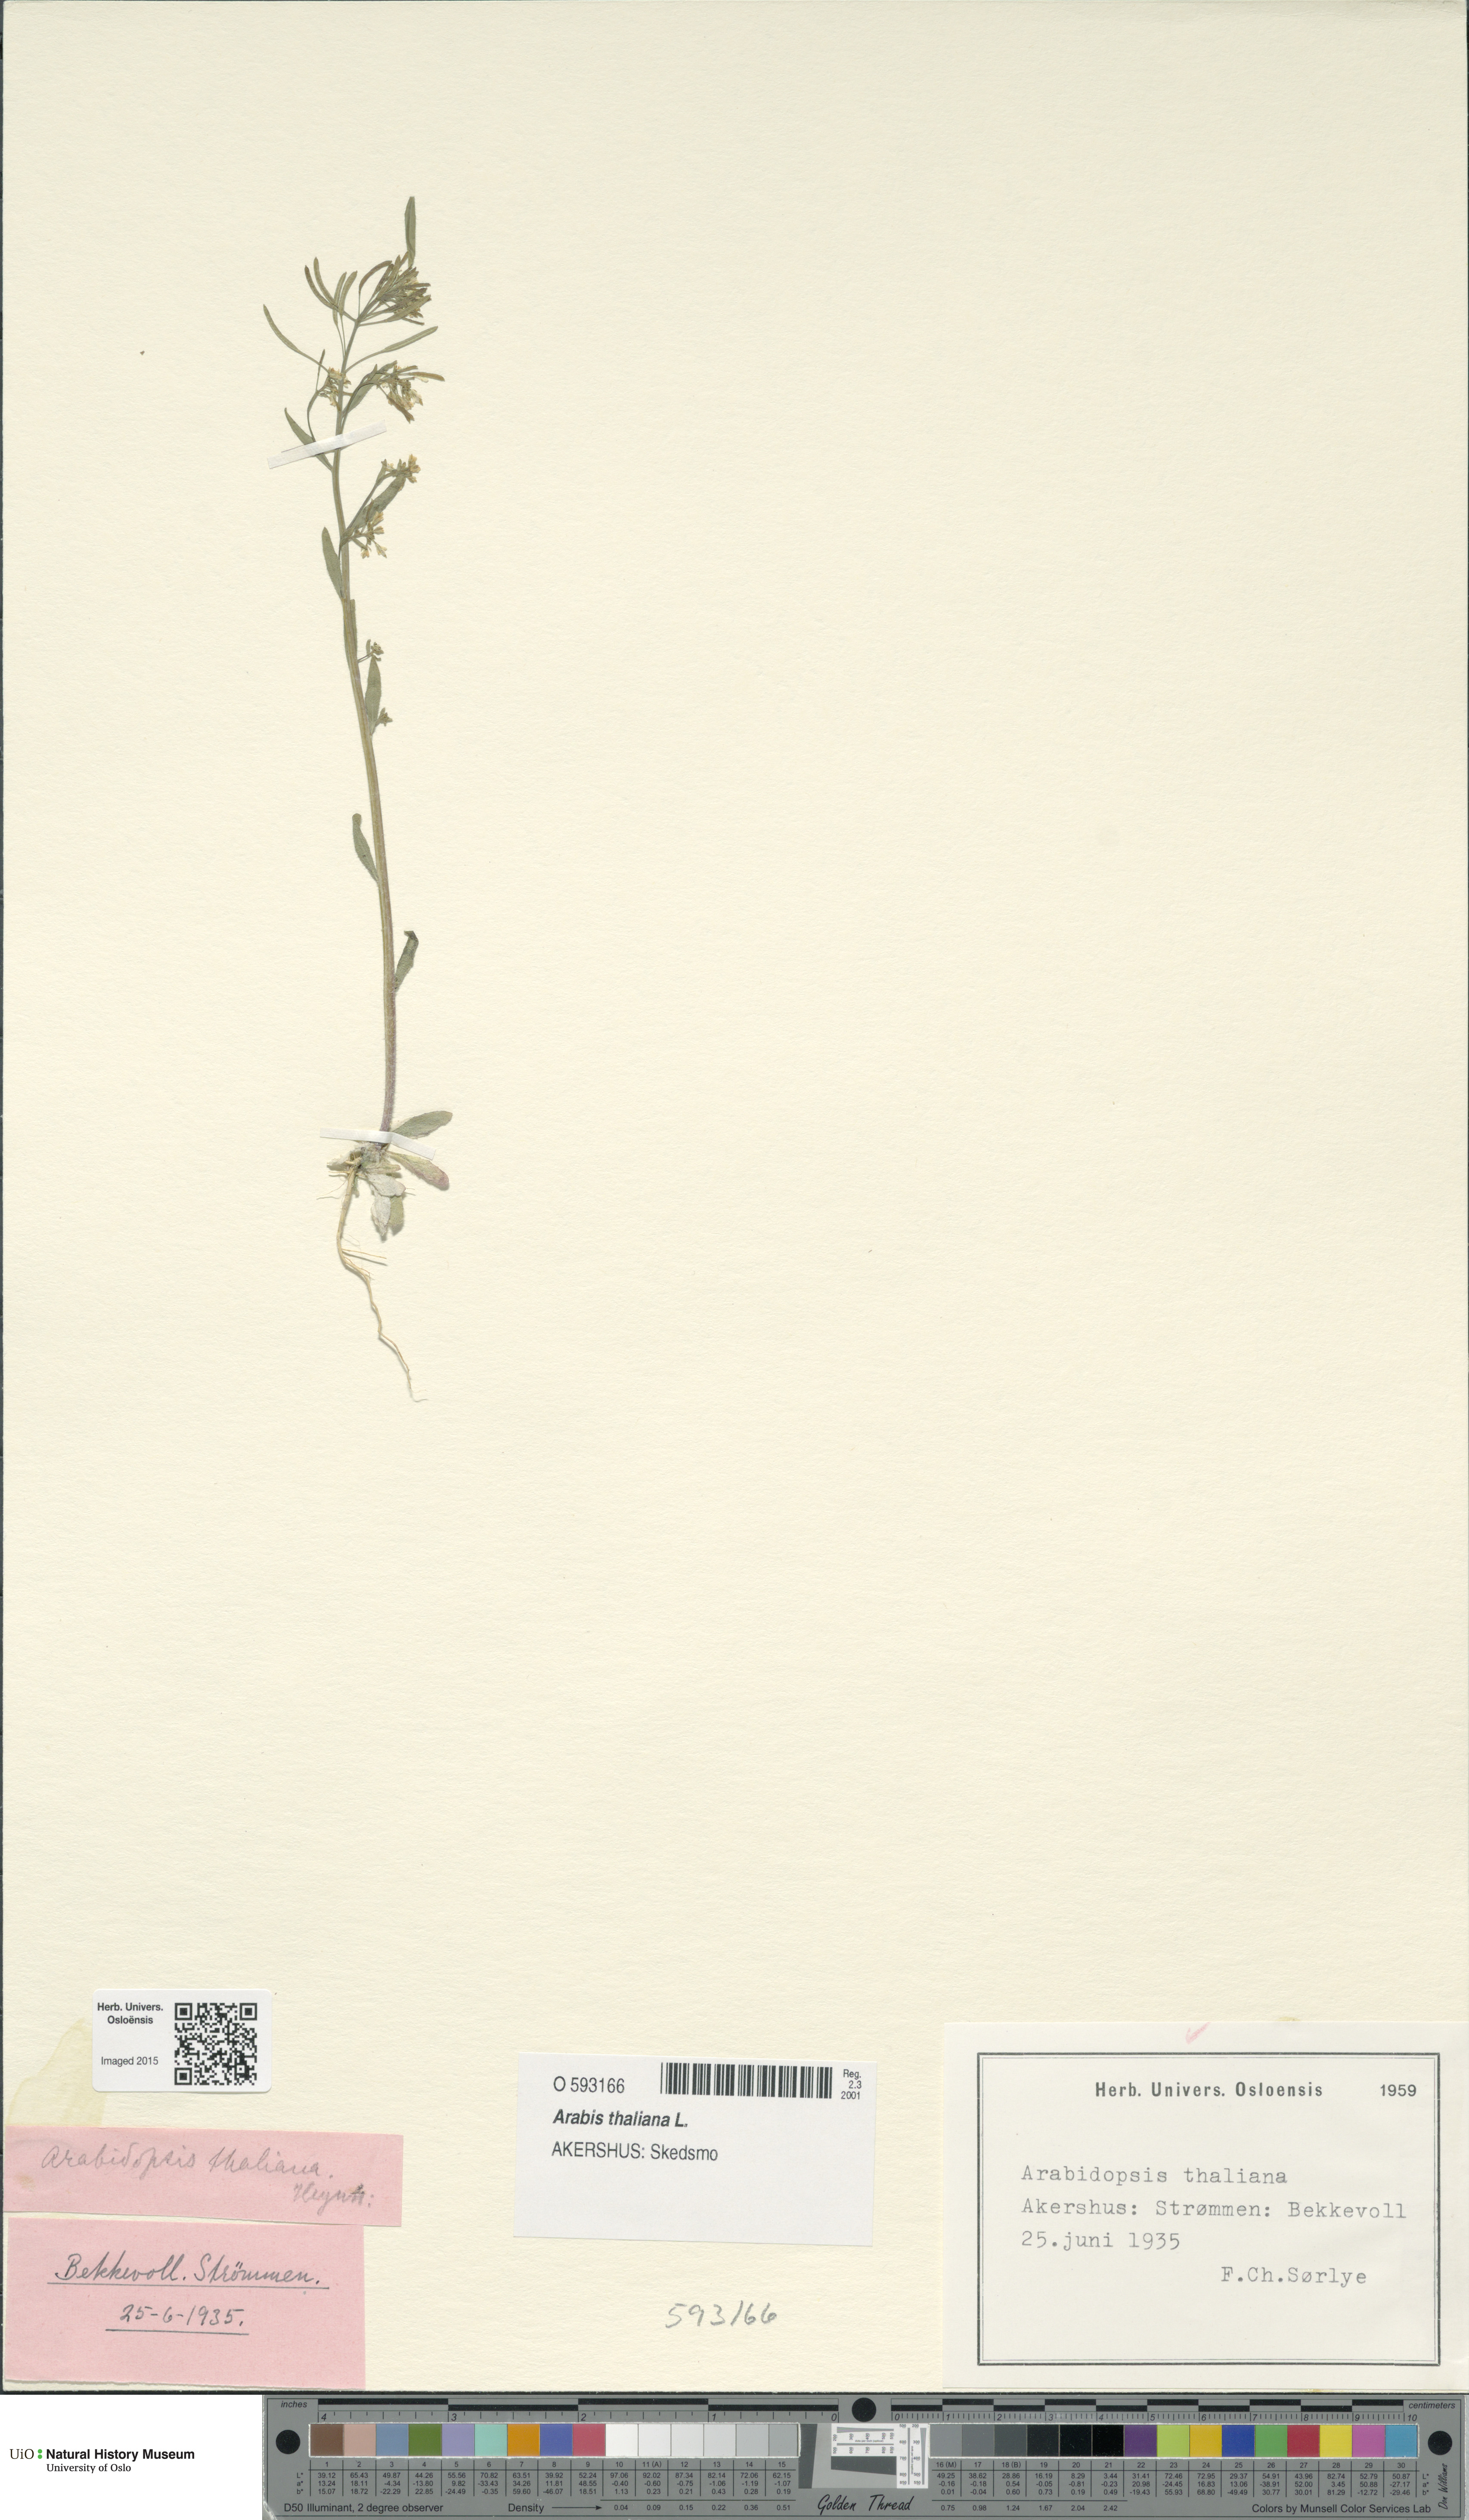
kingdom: Plantae
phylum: Tracheophyta
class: Magnoliopsida
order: Brassicales
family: Brassicaceae
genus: Arabidopsis
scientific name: Arabidopsis thaliana
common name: Thale cress
